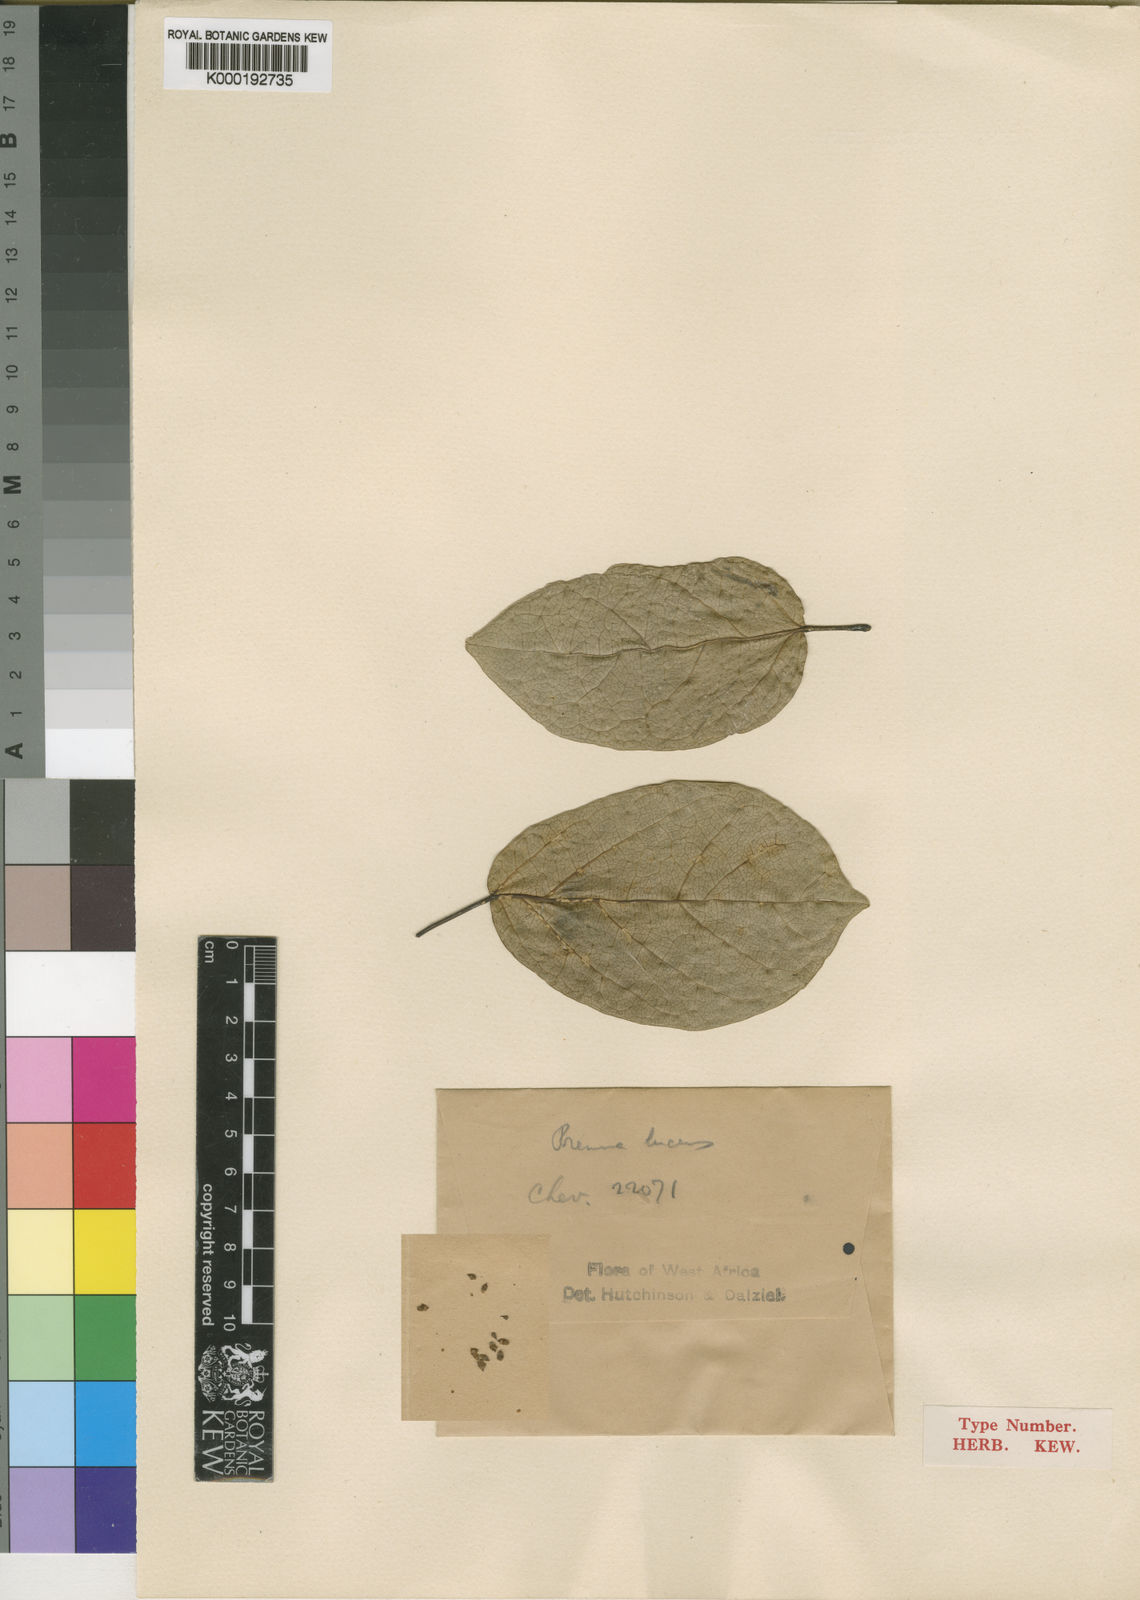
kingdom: Plantae
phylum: Tracheophyta
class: Magnoliopsida
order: Lamiales
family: Lamiaceae
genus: Premna
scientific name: Premna lucens
